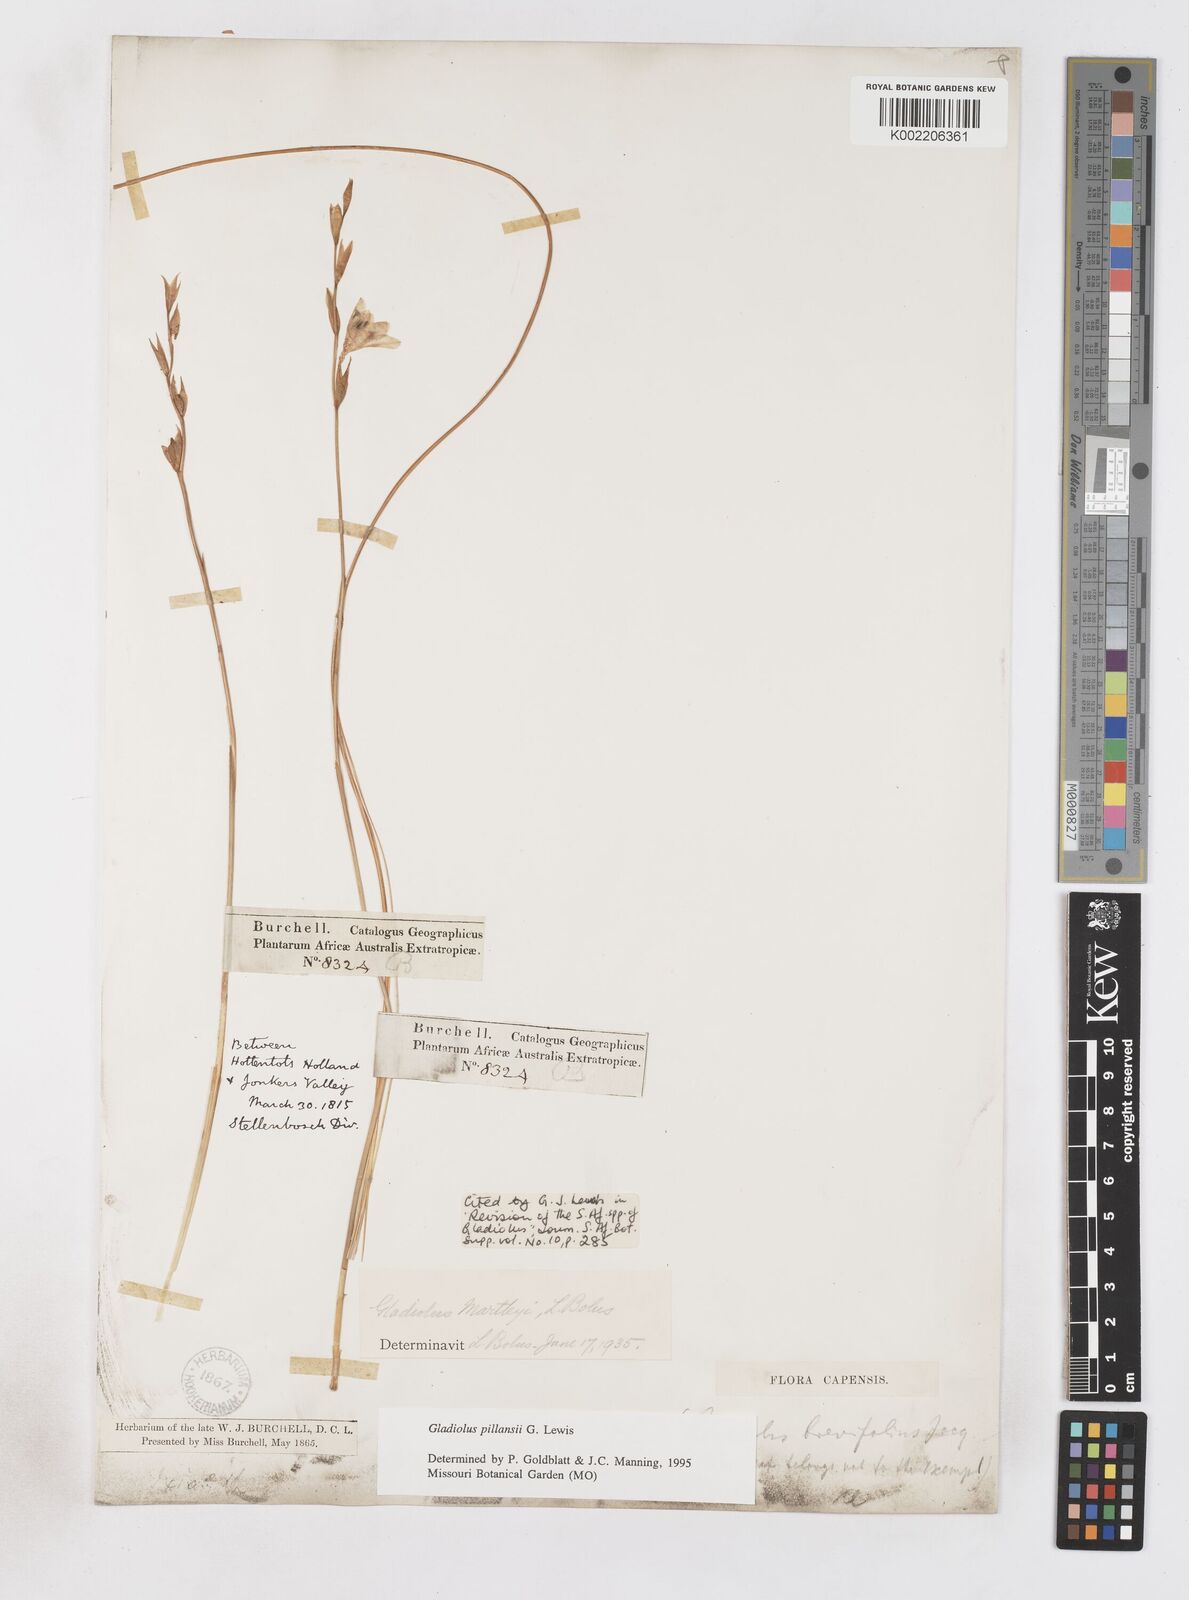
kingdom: Plantae
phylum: Tracheophyta
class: Liliopsida
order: Asparagales
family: Iridaceae
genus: Gladiolus
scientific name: Gladiolus martleyi
